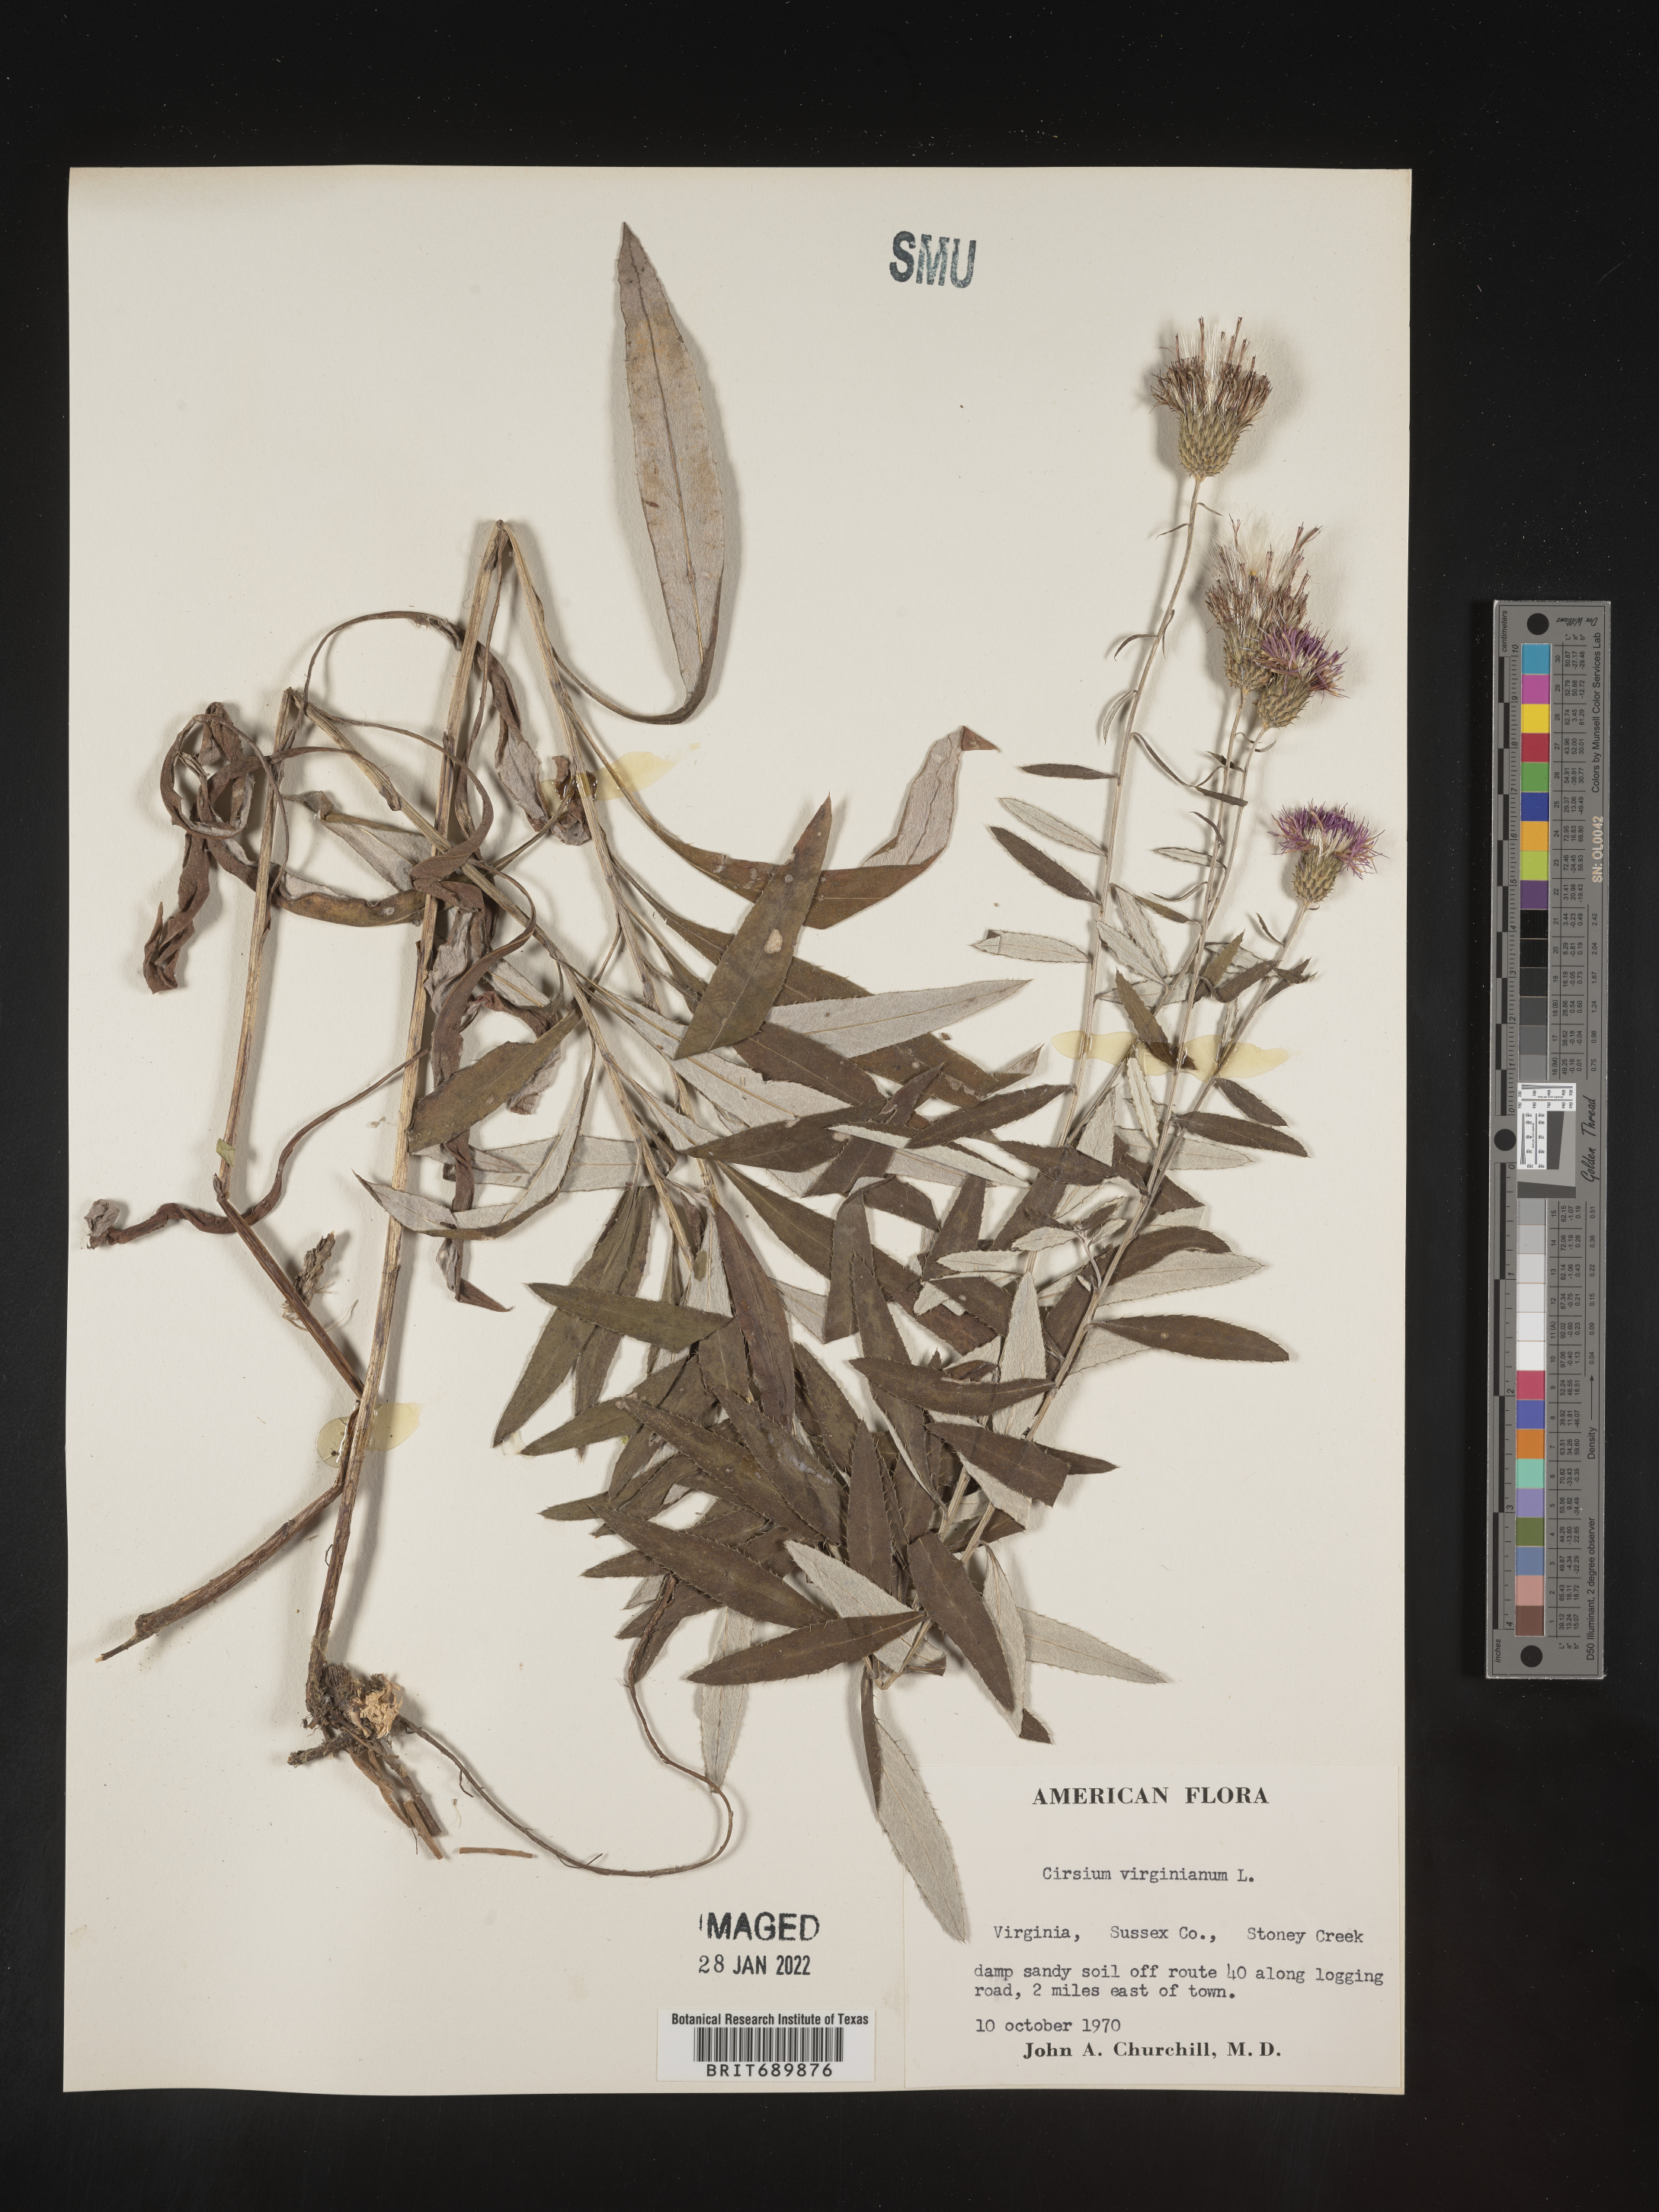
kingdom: Plantae
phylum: Tracheophyta
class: Magnoliopsida
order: Asterales
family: Asteraceae
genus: Cirsium
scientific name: Cirsium
